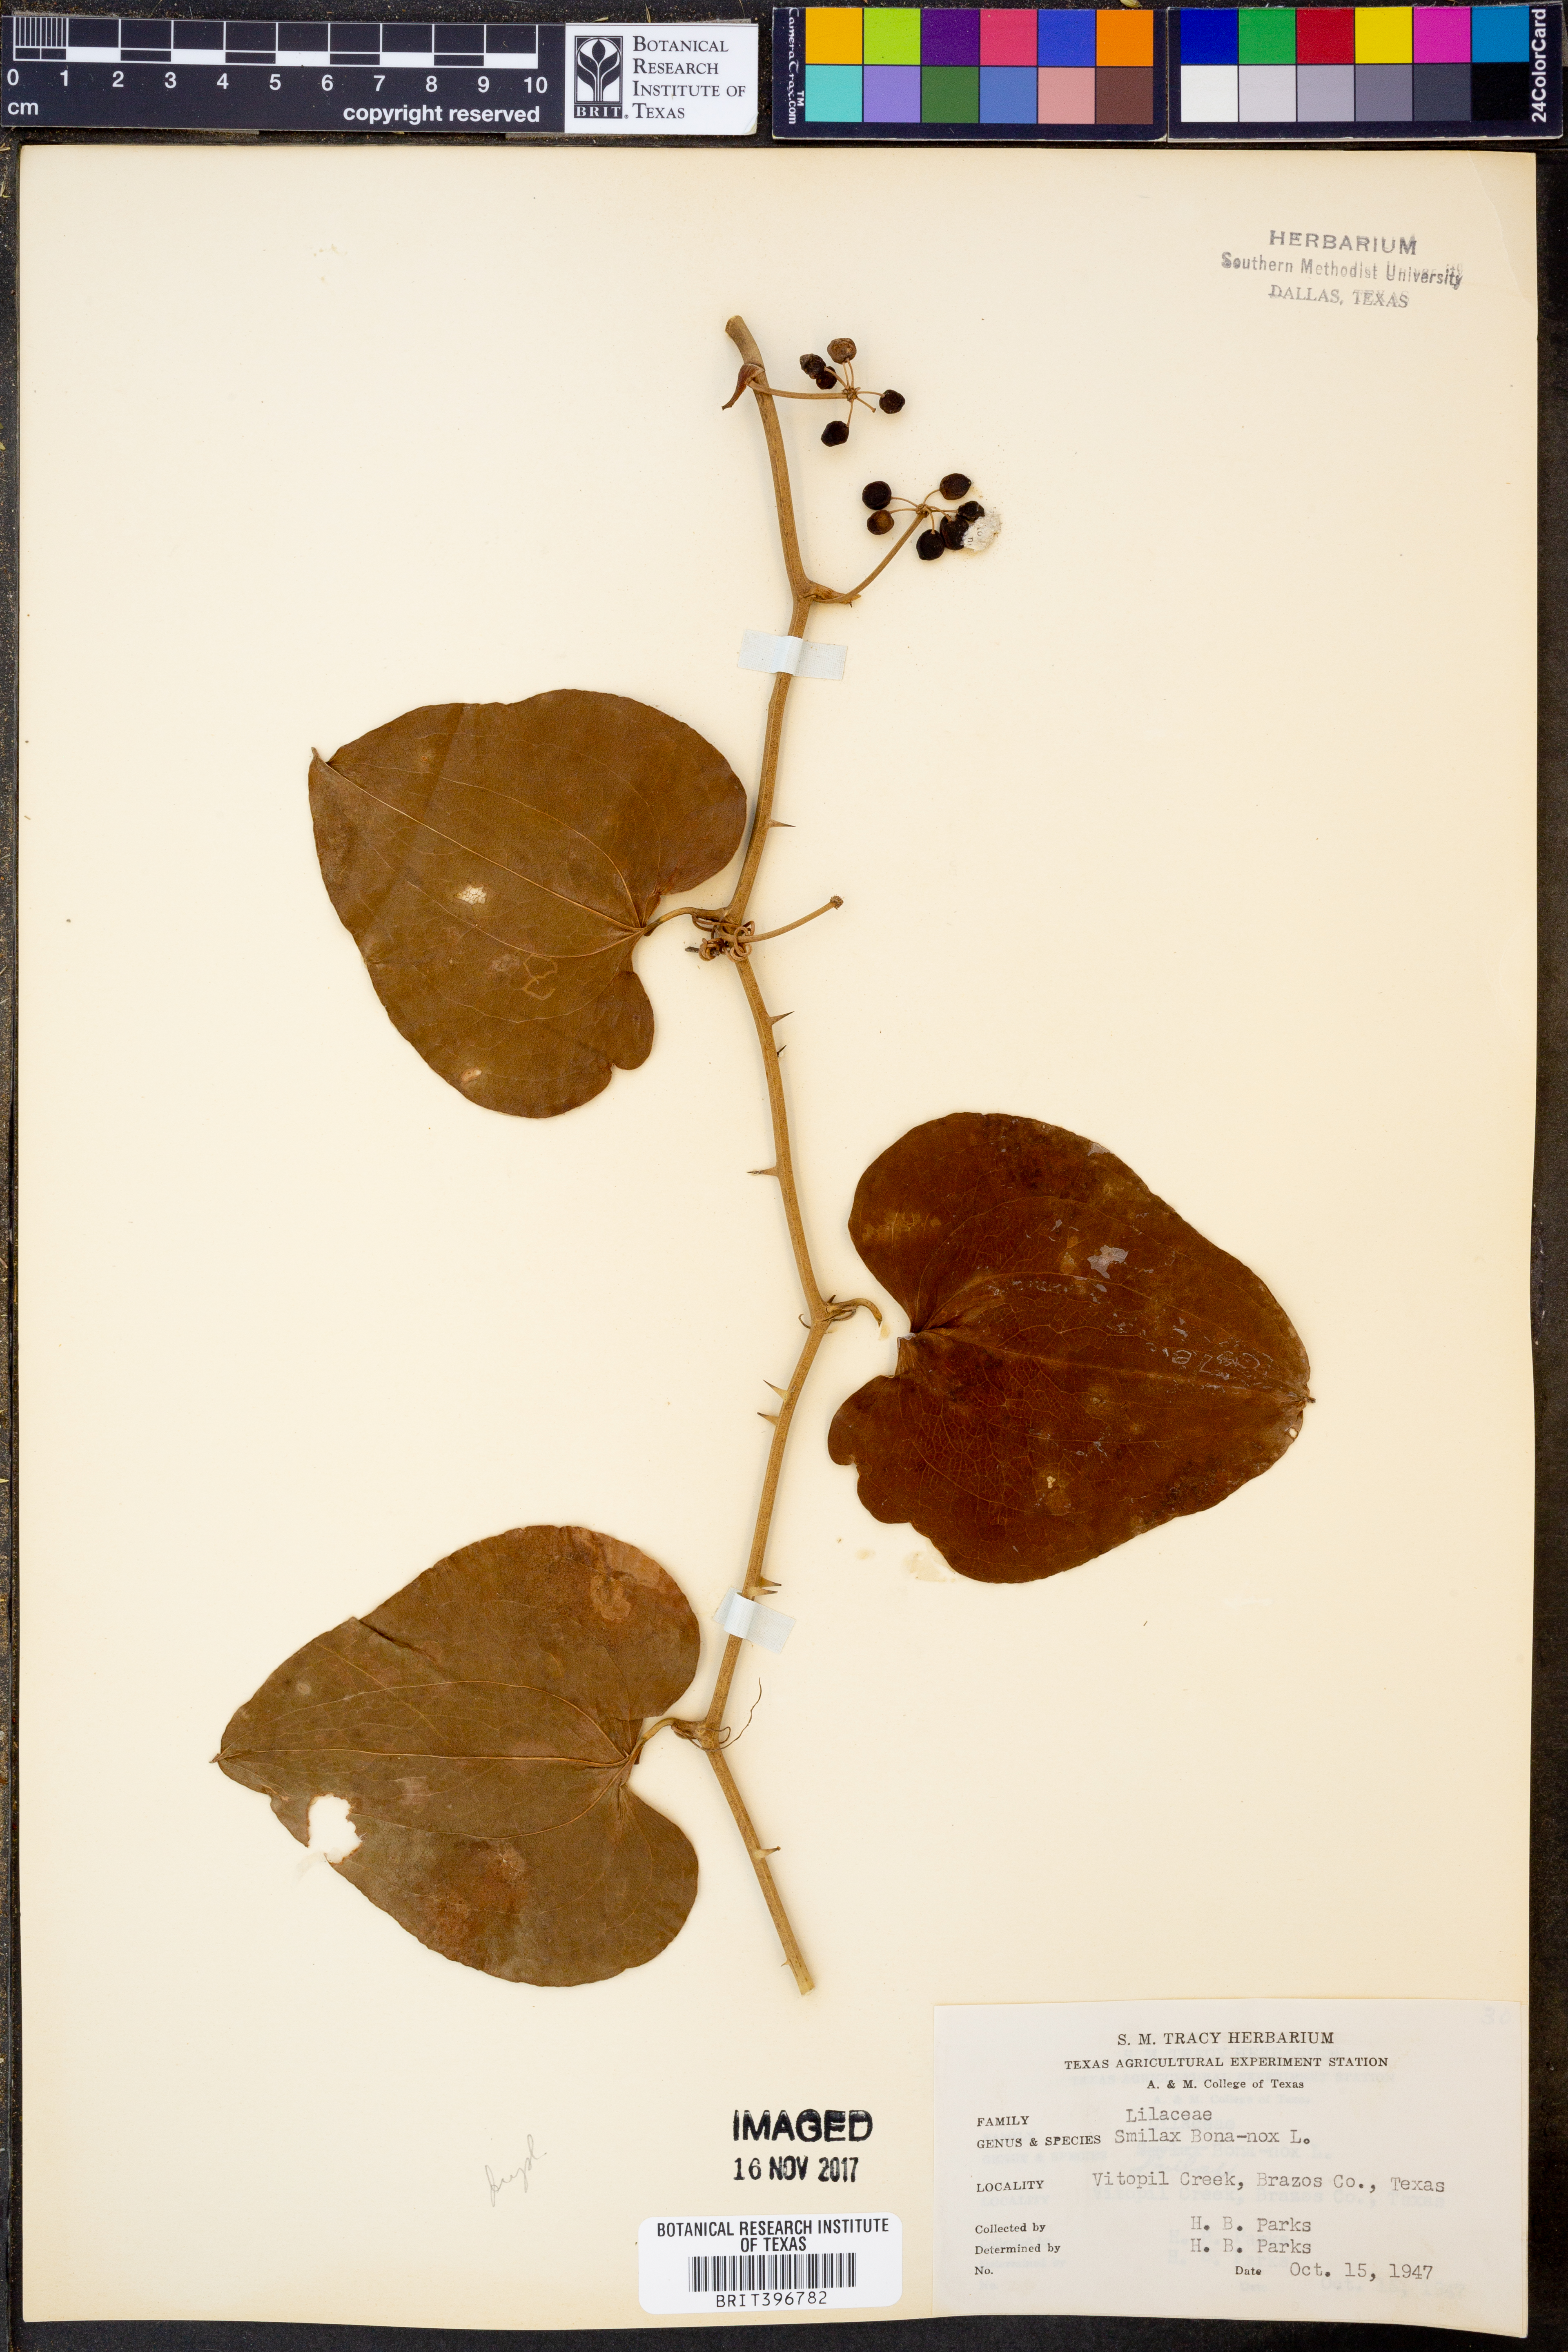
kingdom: Plantae
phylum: Tracheophyta
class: Liliopsida
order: Liliales
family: Smilacaceae
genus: Smilax
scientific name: Smilax bona-nox
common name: Catbrier
